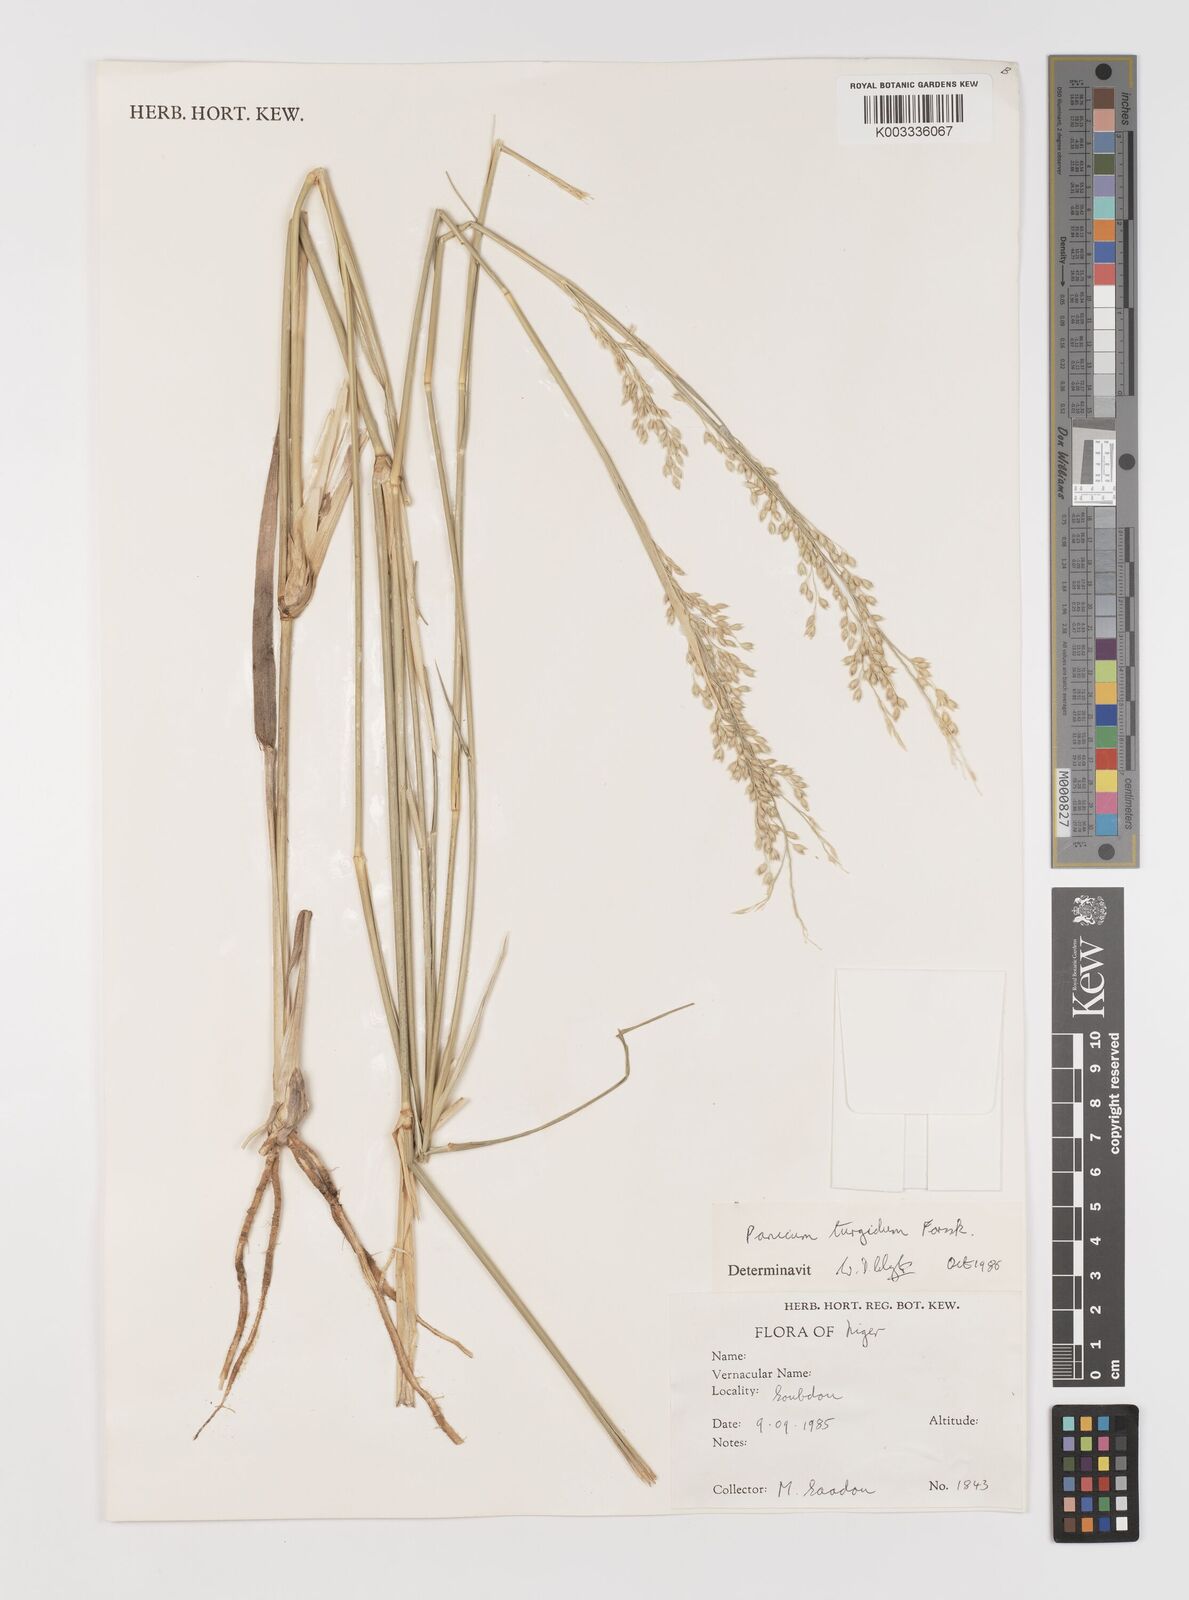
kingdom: Plantae
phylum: Tracheophyta
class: Liliopsida
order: Poales
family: Poaceae
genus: Panicum
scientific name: Panicum turgidum
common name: Desert grass
